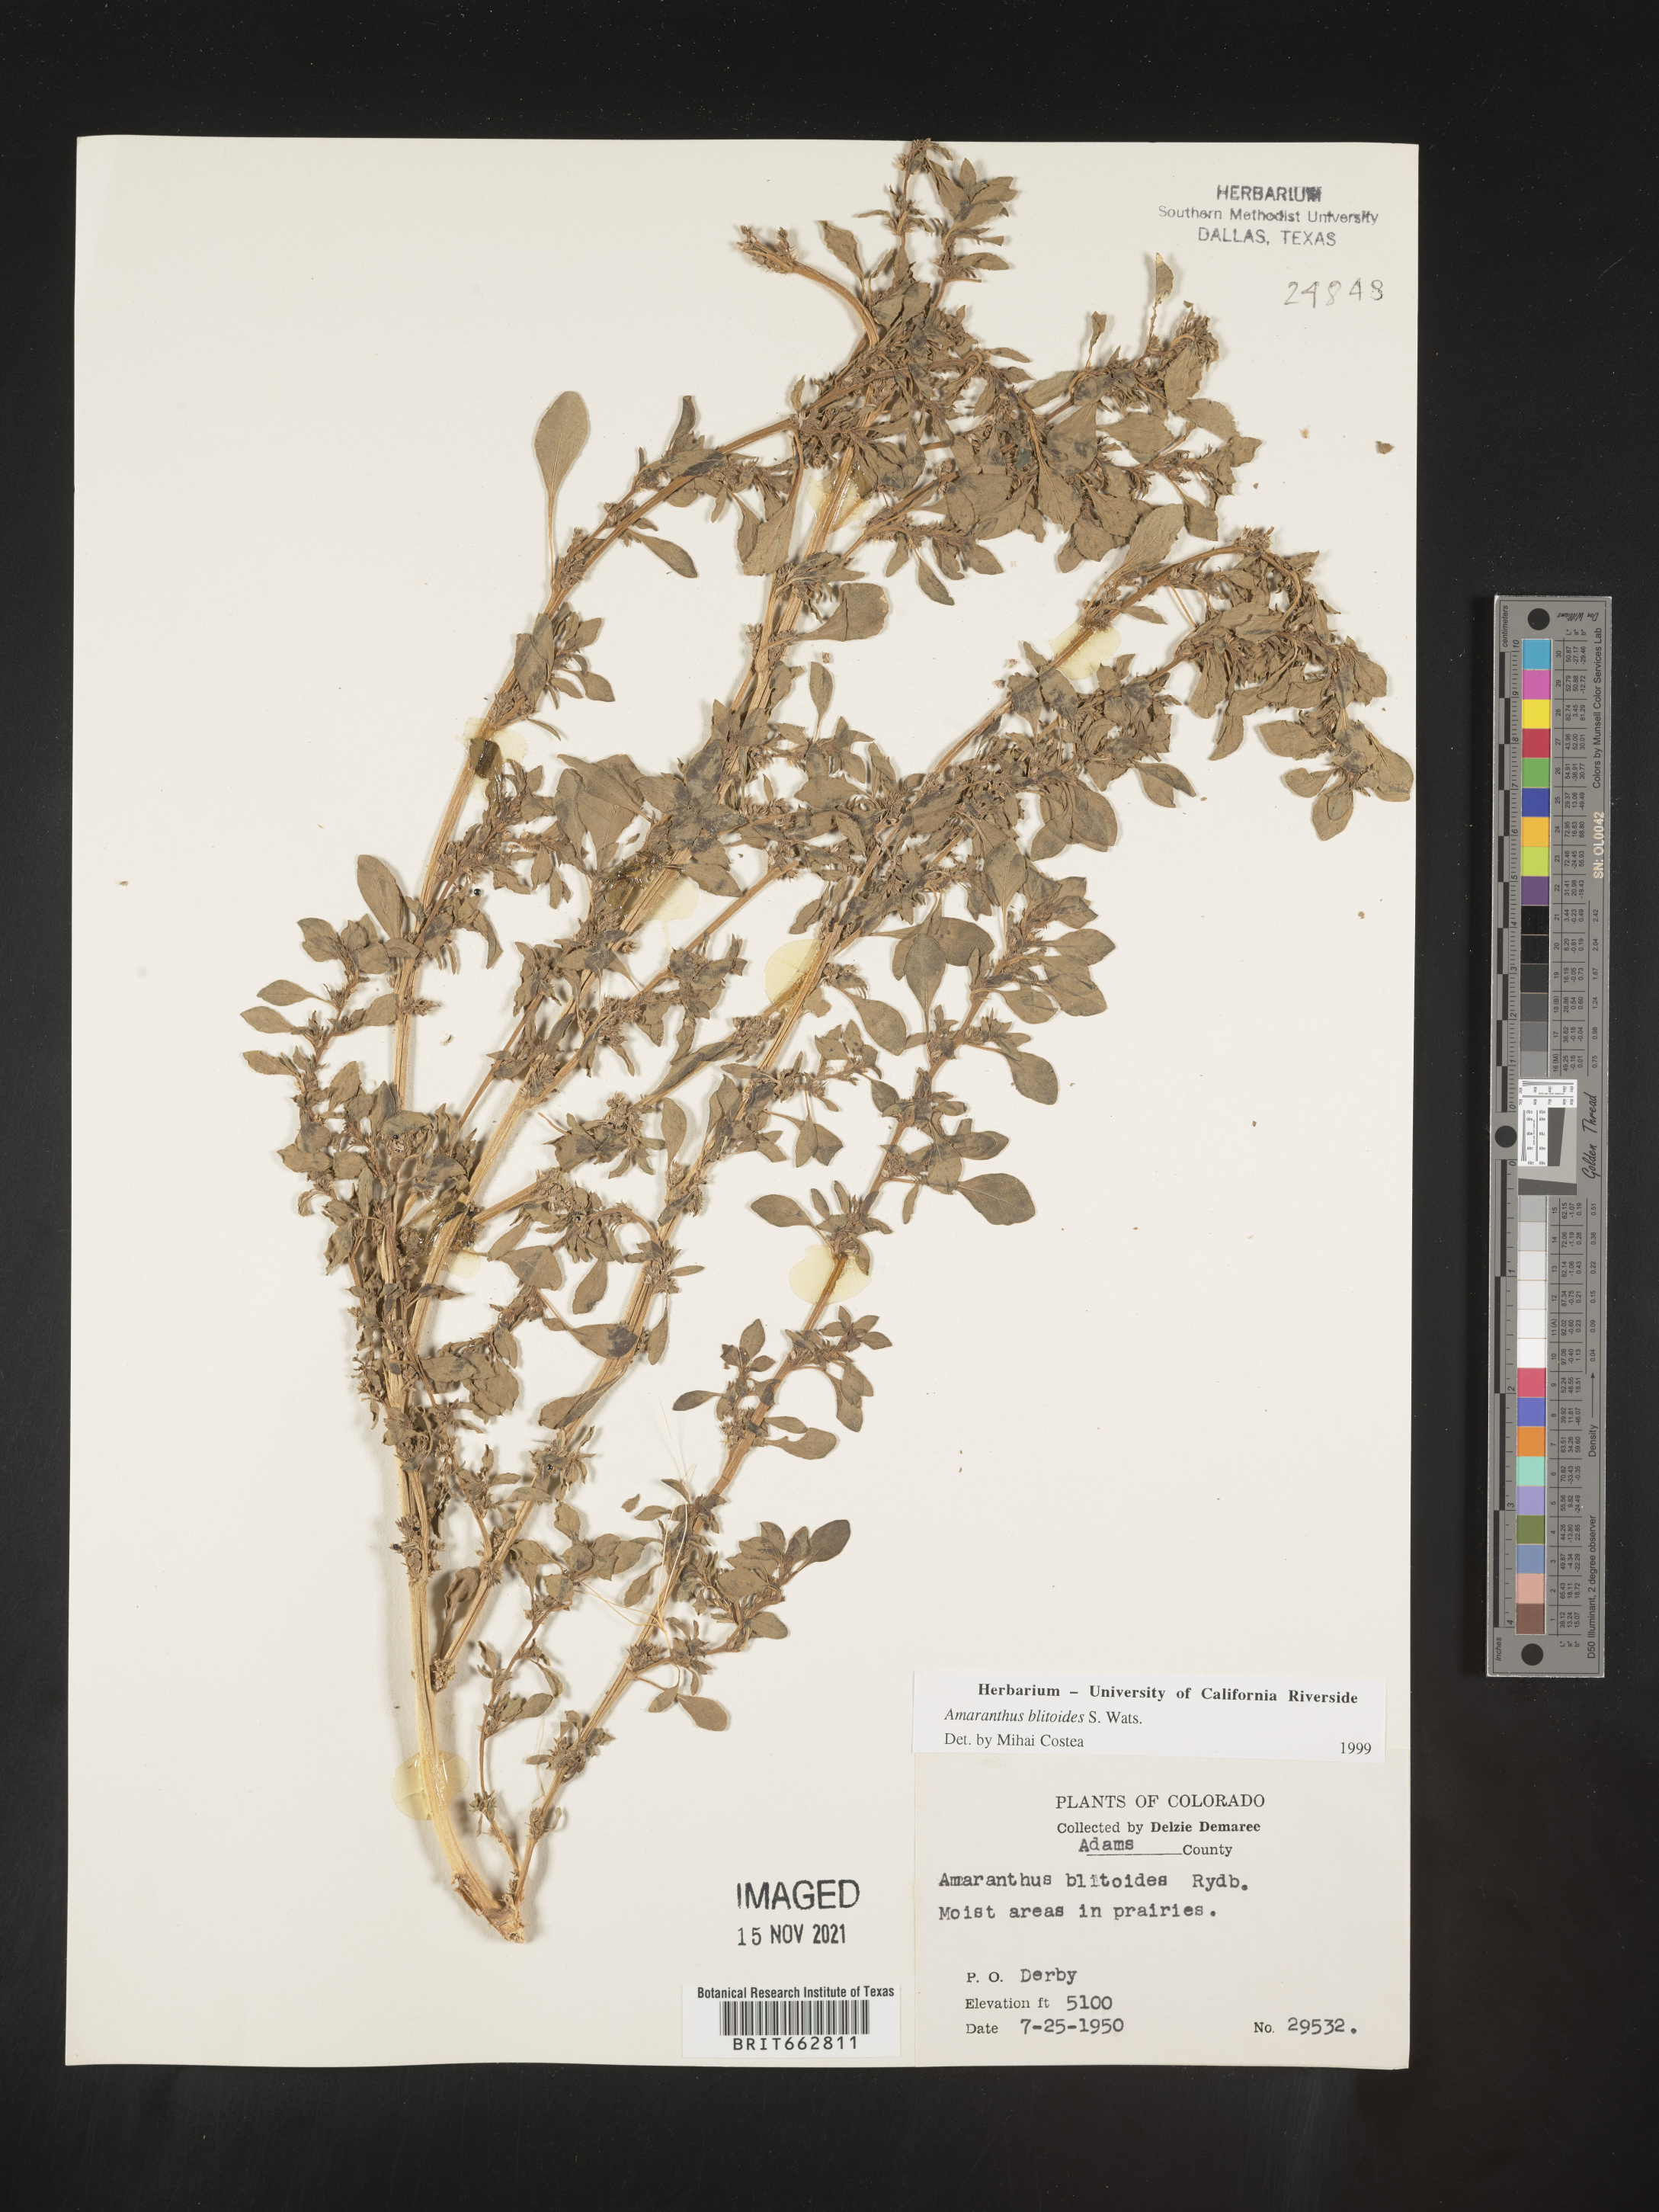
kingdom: Plantae
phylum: Tracheophyta
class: Magnoliopsida
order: Caryophyllales
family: Amaranthaceae
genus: Amaranthus
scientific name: Amaranthus blitoides
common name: Prostrate pigweed
